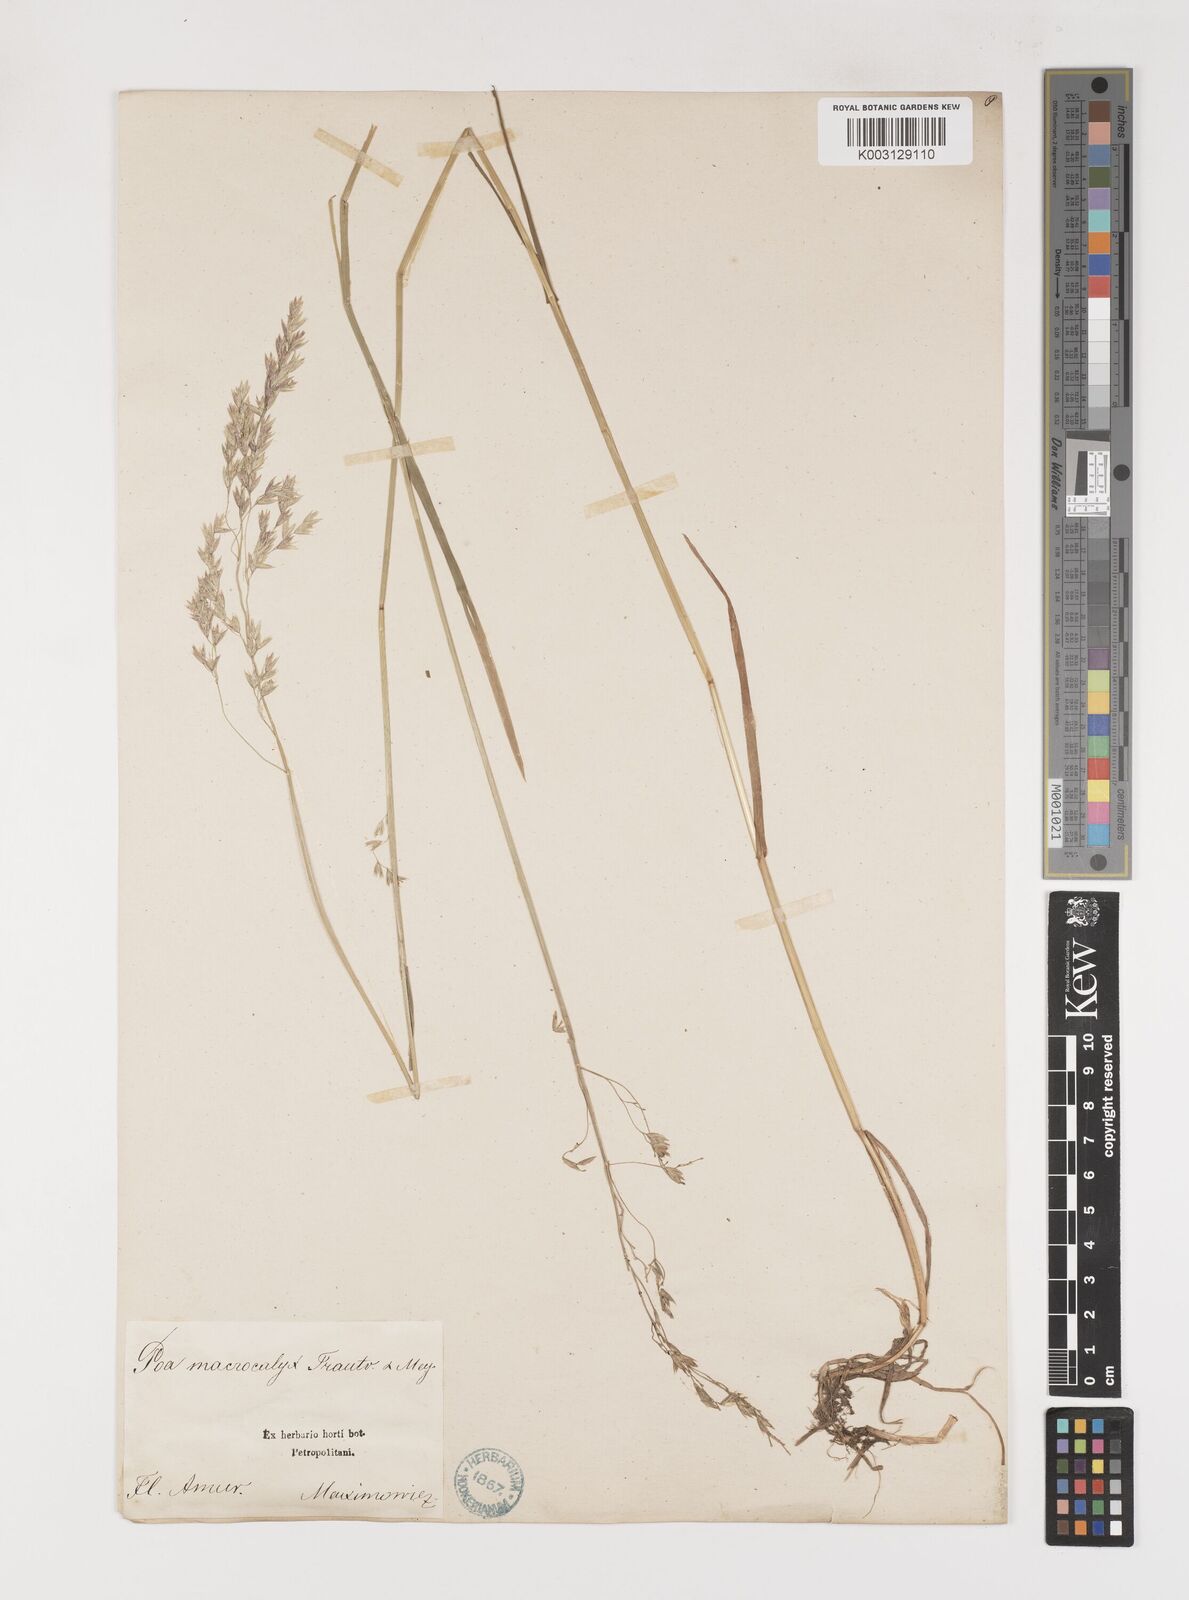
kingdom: Plantae
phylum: Tracheophyta
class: Liliopsida
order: Poales
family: Poaceae
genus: Poa
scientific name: Poa macrocalyx
